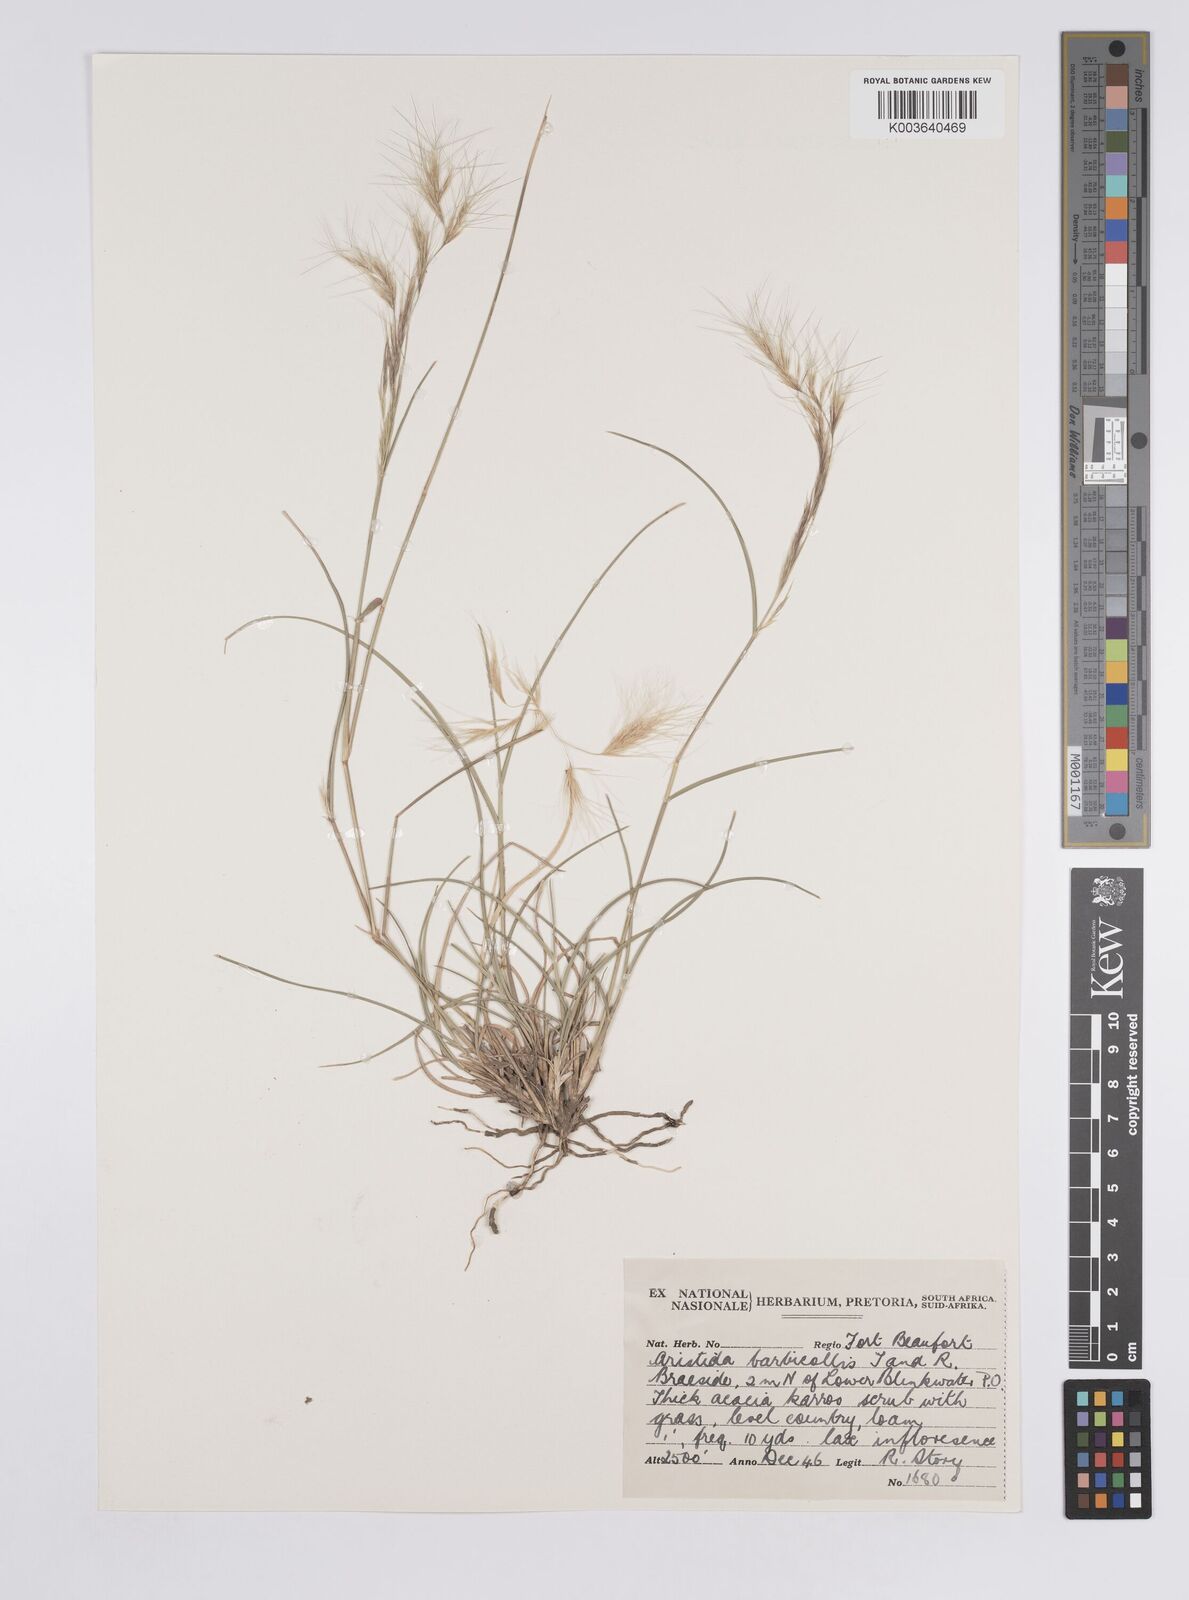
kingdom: Plantae
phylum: Tracheophyta
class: Liliopsida
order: Poales
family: Poaceae
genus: Aristida
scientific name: Aristida barbicollis
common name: Spreading prickle grass
